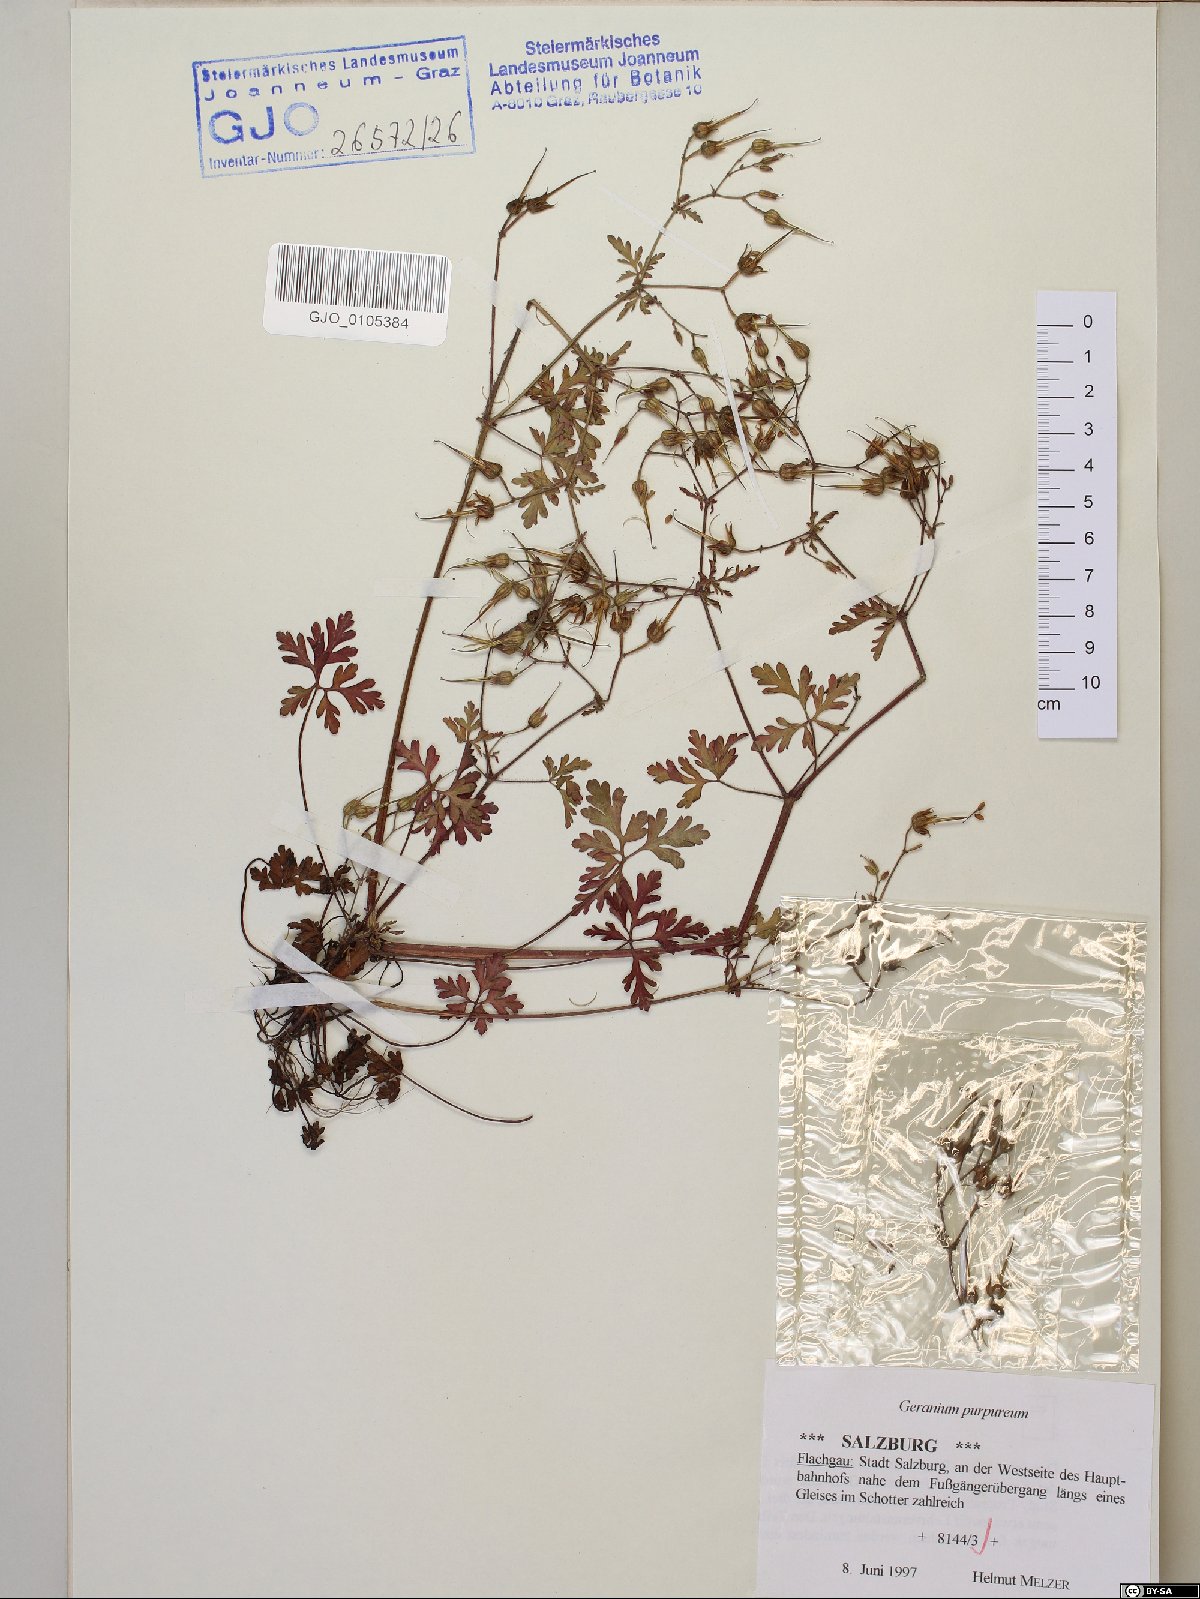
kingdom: Plantae
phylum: Tracheophyta
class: Magnoliopsida
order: Geraniales
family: Geraniaceae
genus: Geranium
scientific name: Geranium purpureum
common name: Little-robin
